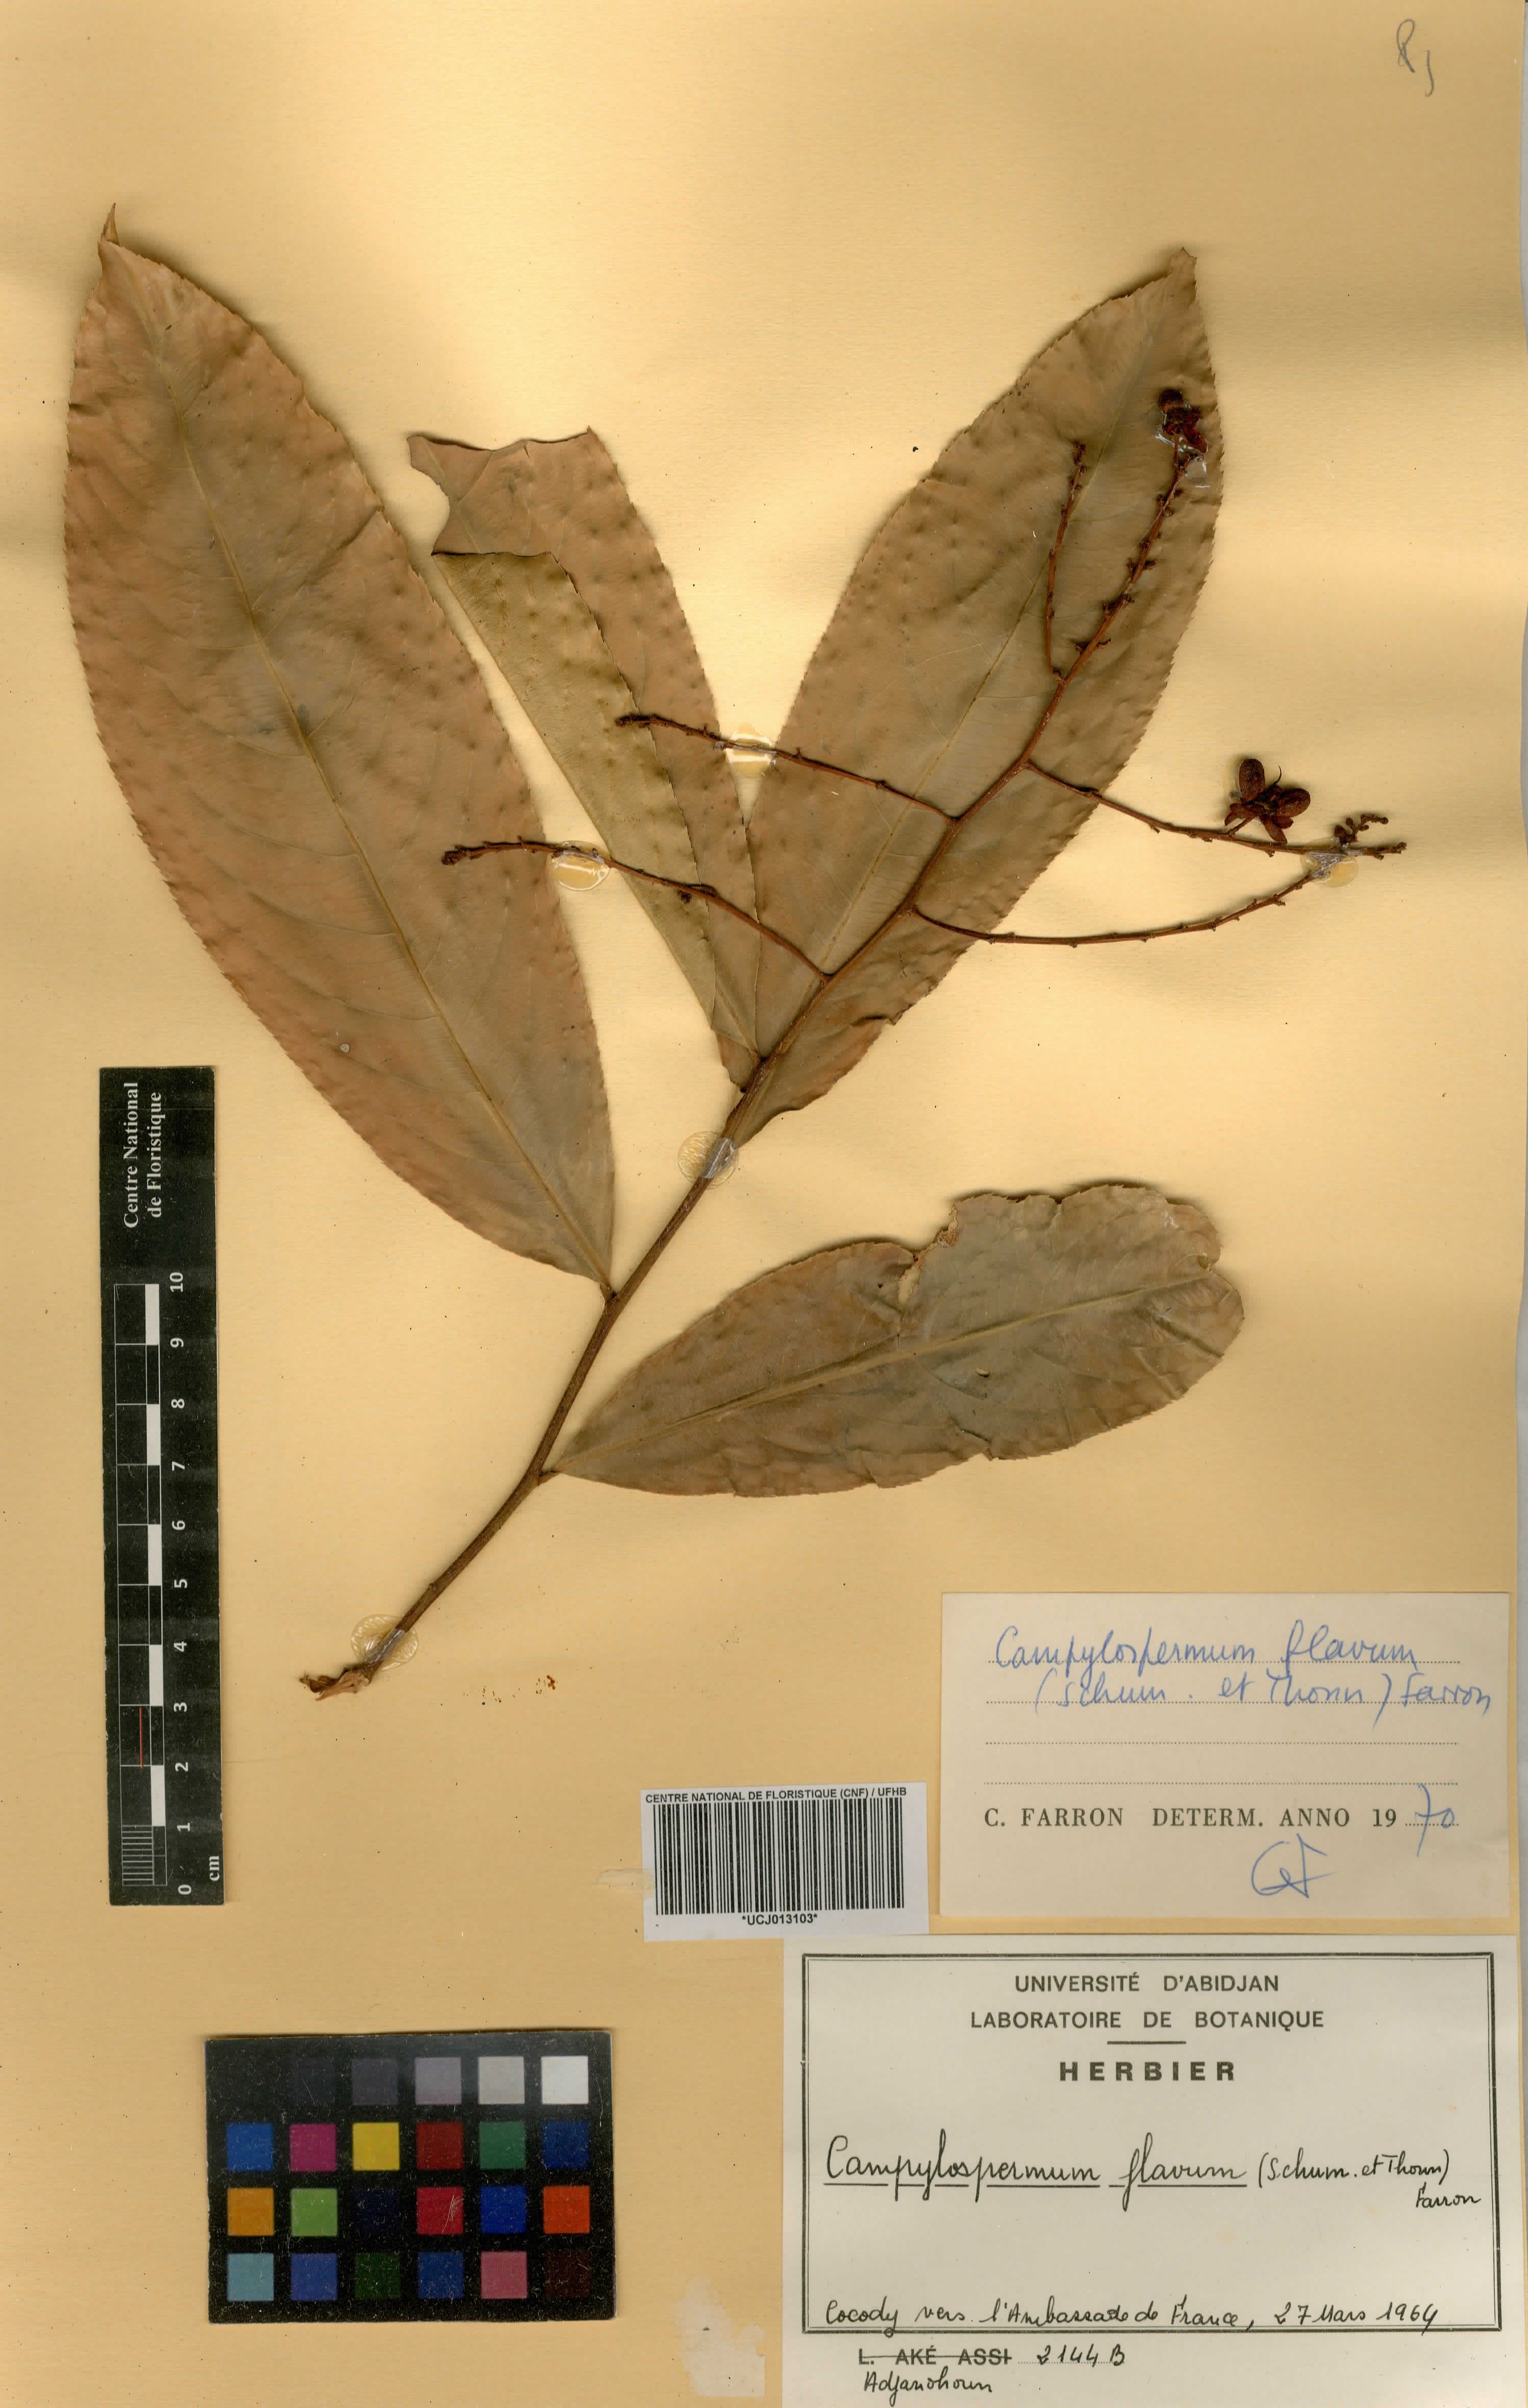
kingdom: Plantae
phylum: Tracheophyta
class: Magnoliopsida
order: Malpighiales
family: Ochnaceae
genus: Campylospermum
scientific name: Campylospermum flavum
